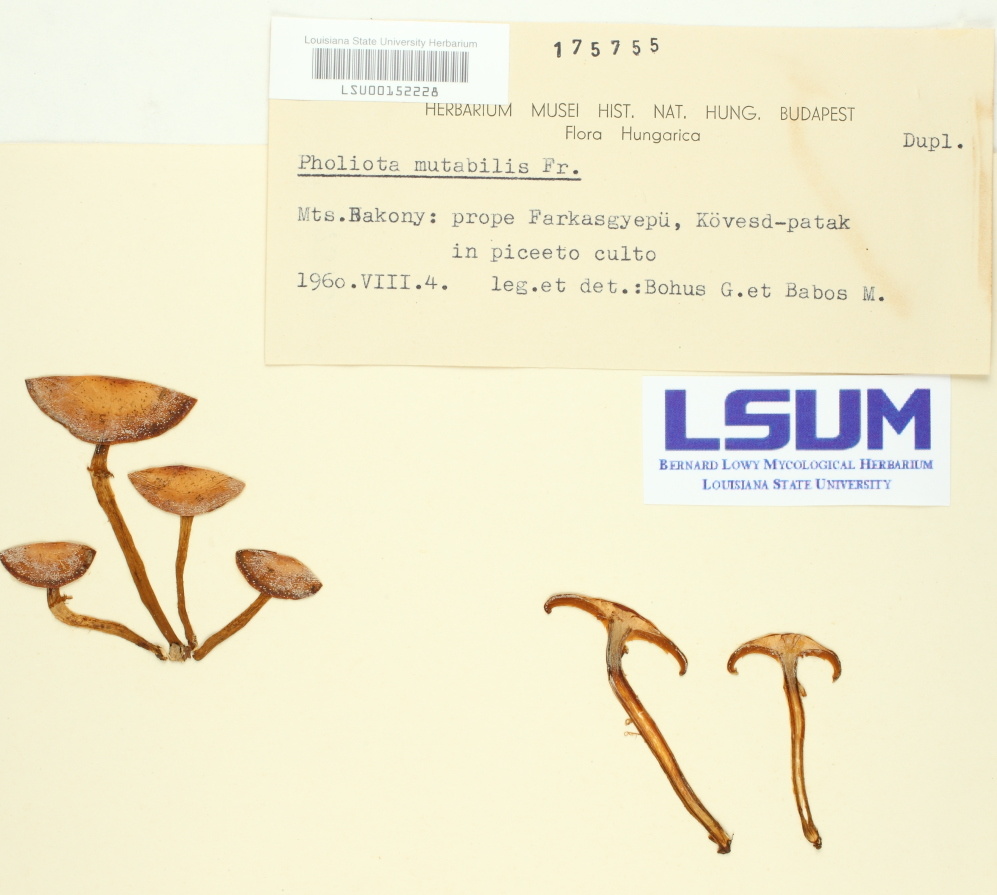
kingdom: Fungi
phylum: Basidiomycota
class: Agaricomycetes
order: Agaricales
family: Strophariaceae
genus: Kuehneromyces
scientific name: Kuehneromyces mutabilis
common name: Sheathed woodtuft
